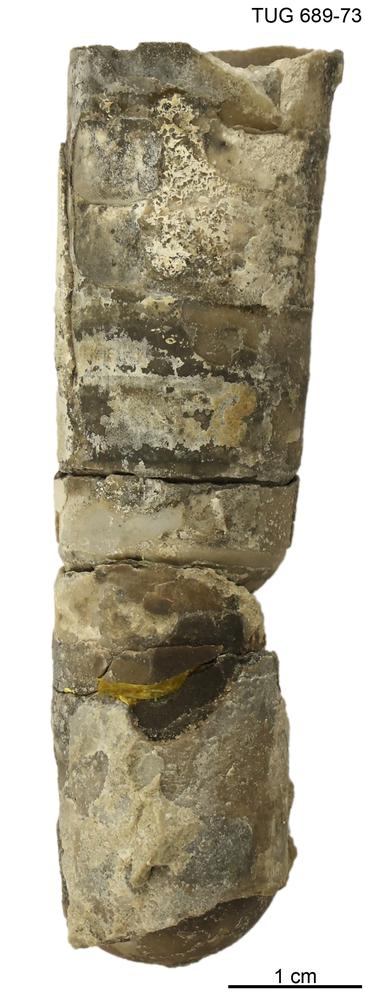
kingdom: Animalia
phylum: Mollusca
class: Cephalopoda
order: Orthocerida
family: Orthoceratidae
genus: Orthoceras
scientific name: Orthoceras
